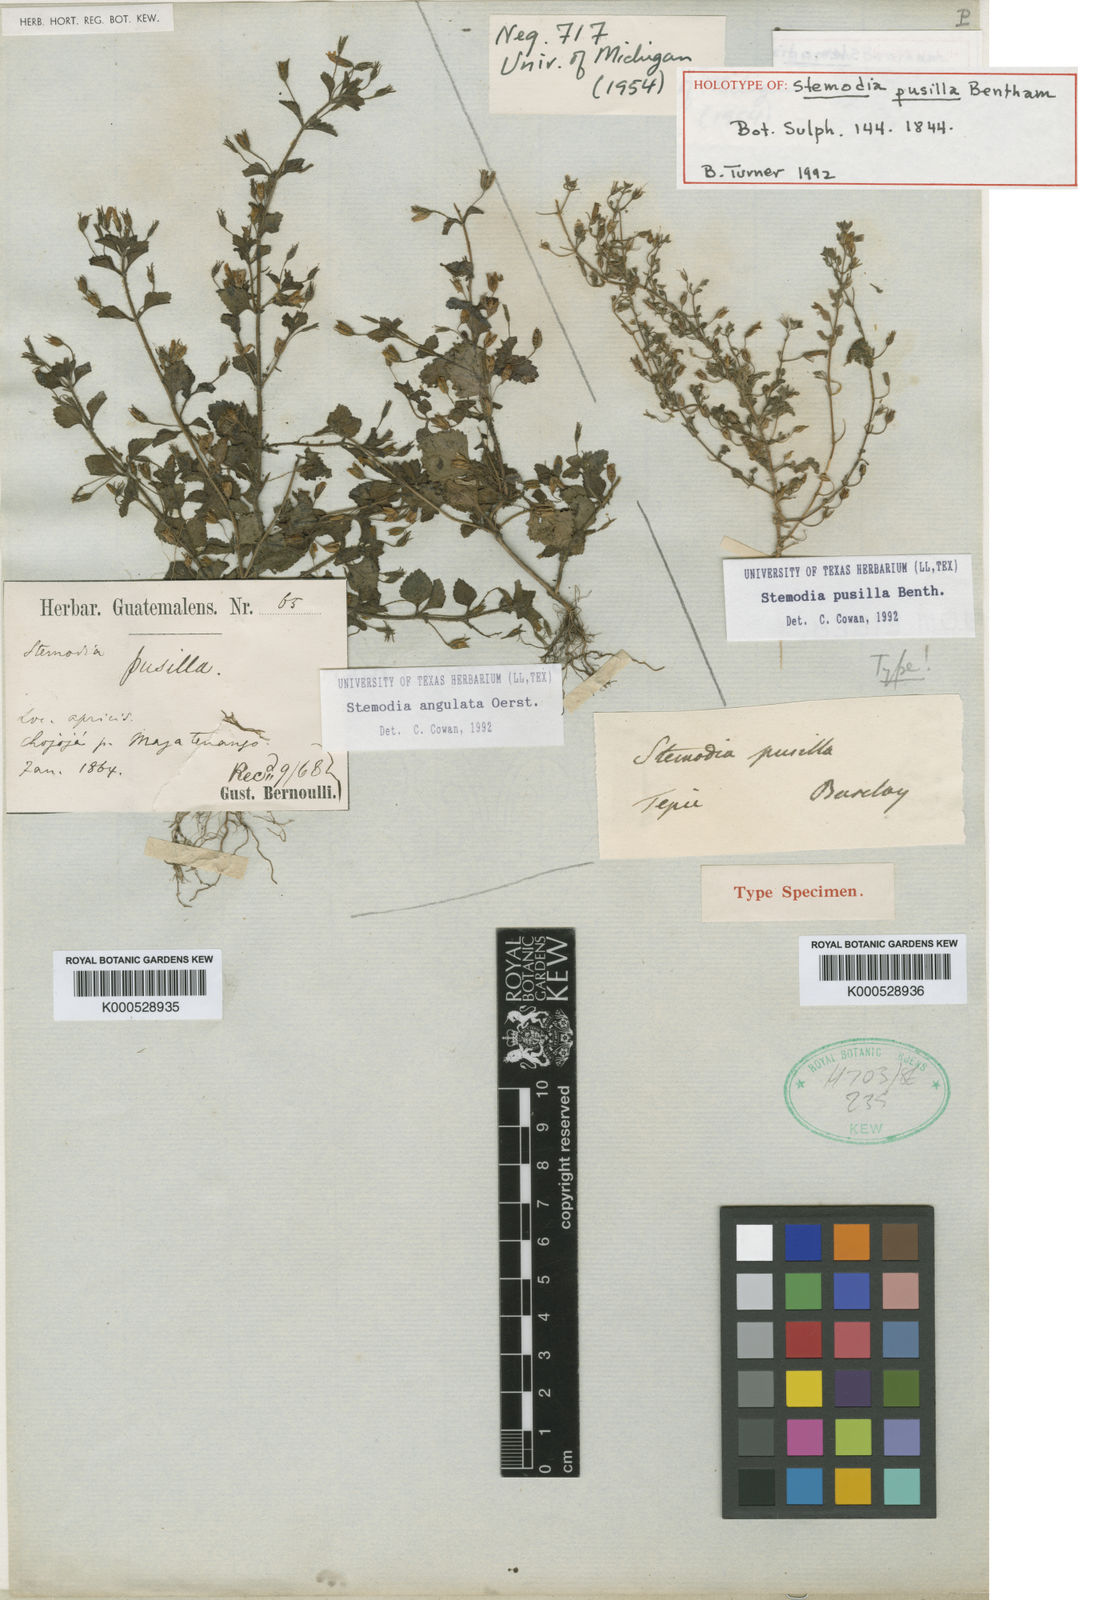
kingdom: Plantae
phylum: Tracheophyta
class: Magnoliopsida
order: Lamiales
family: Plantaginaceae
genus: Stemodia
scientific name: Stemodia pusilla
